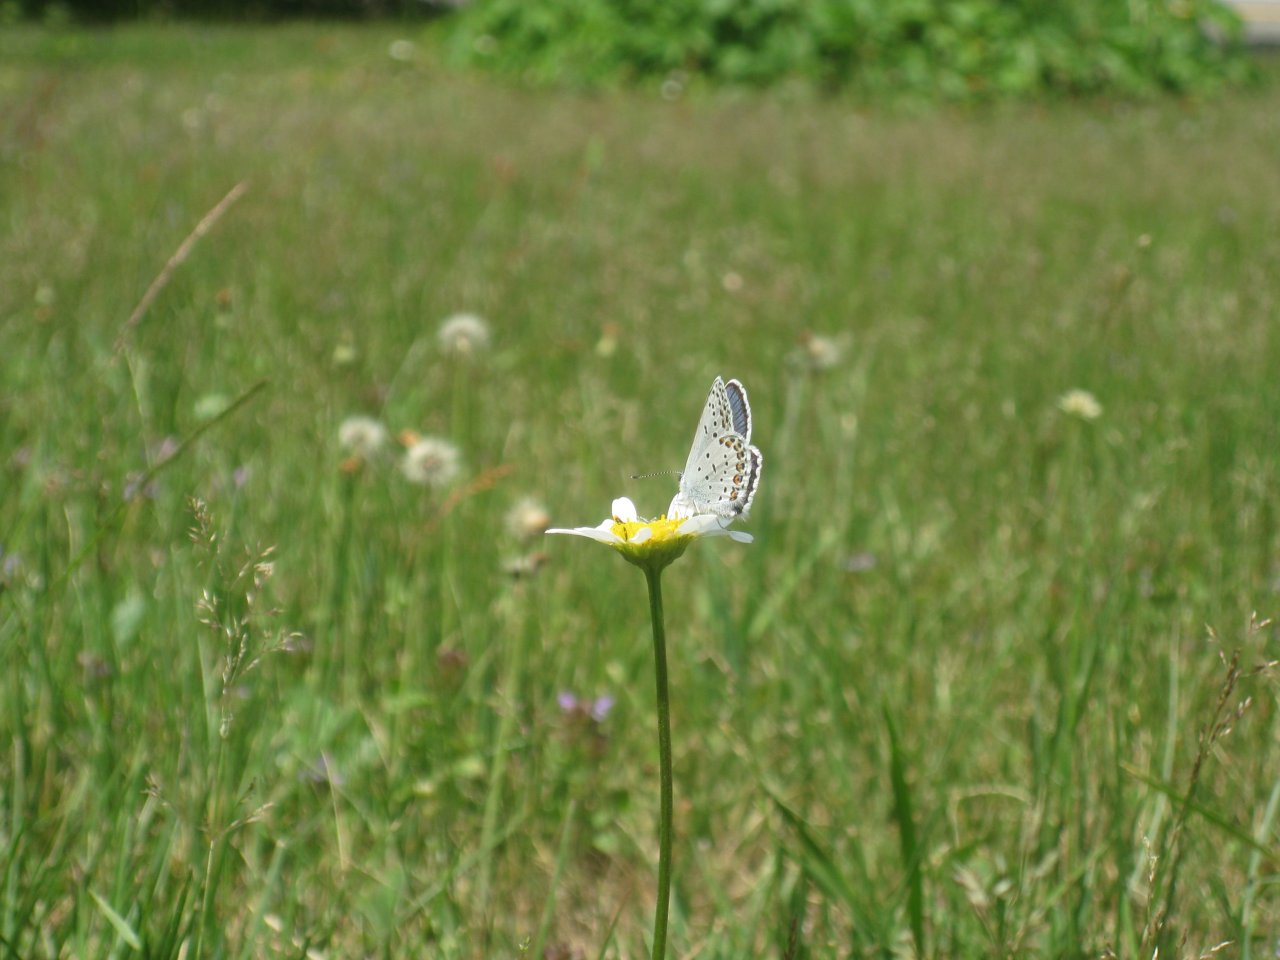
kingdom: Animalia
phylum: Arthropoda
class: Insecta
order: Lepidoptera
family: Lycaenidae
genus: Lycaeides
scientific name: Lycaeides idas
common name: Northern Blue
